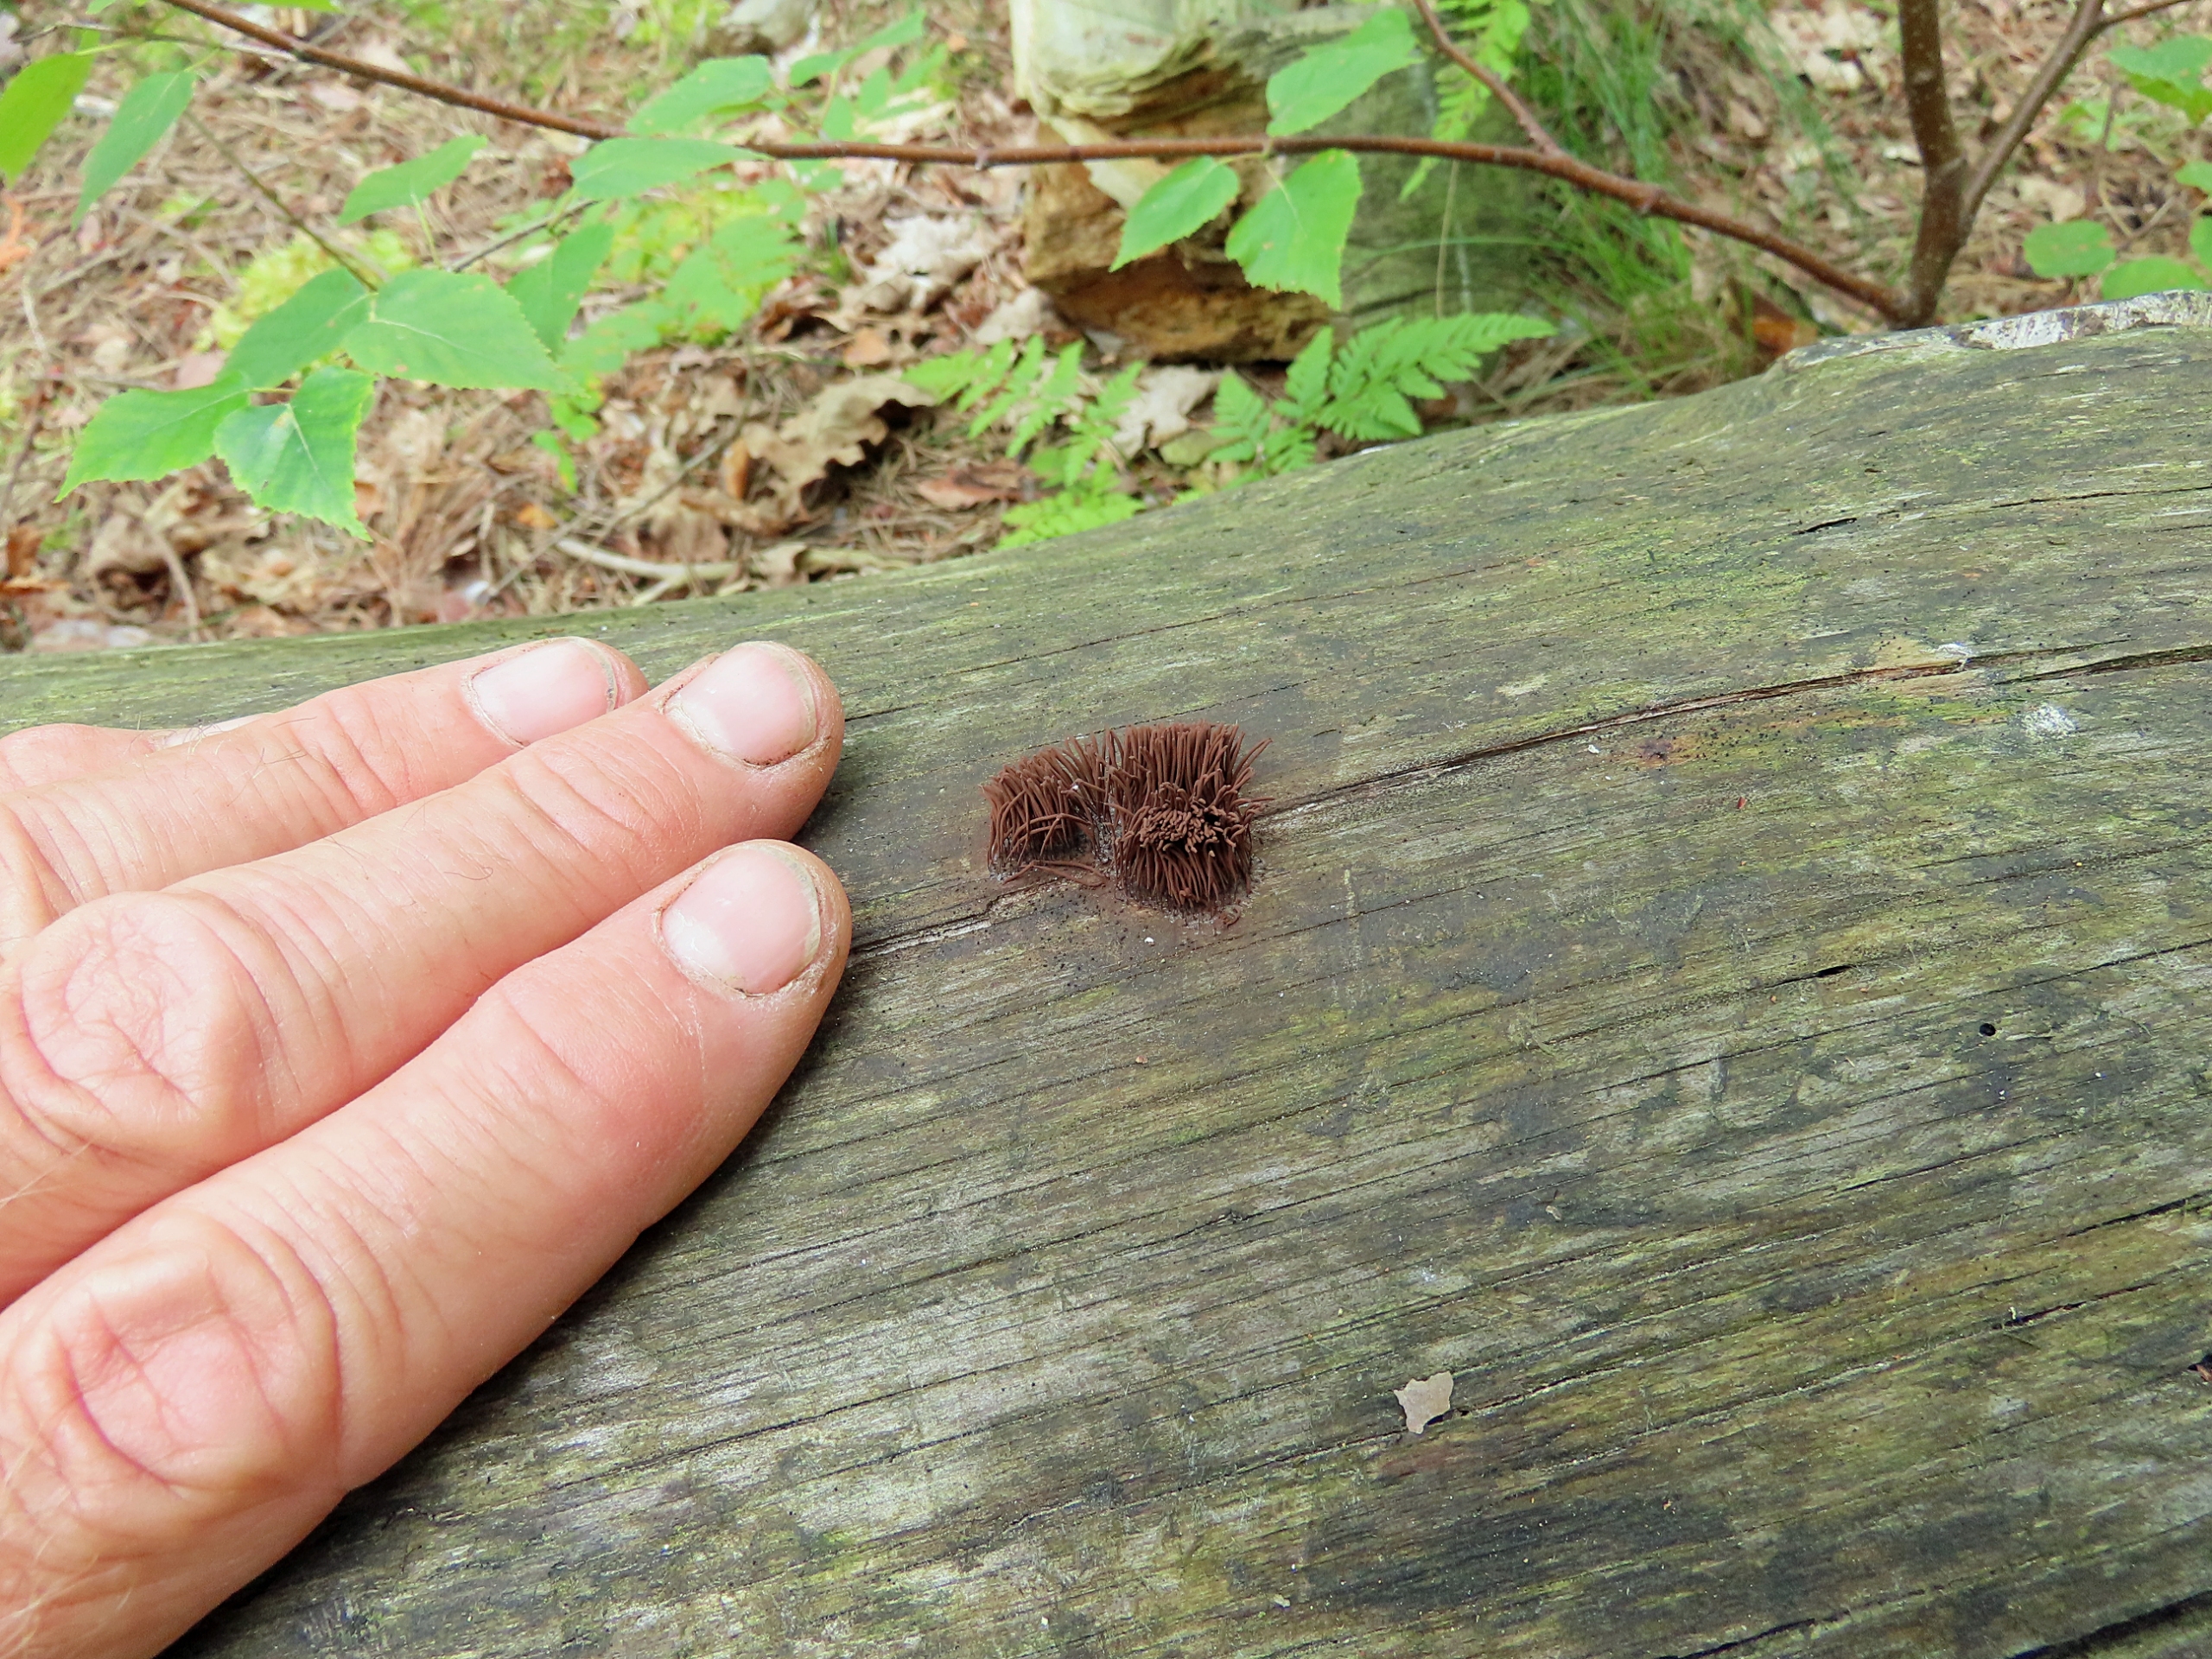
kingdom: Protozoa
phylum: Mycetozoa
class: Myxomycetes
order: Stemonitidales
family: Stemonitidaceae
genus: Stemonitis
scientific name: Stemonitis axifera
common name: Rødbrun støvkølle
